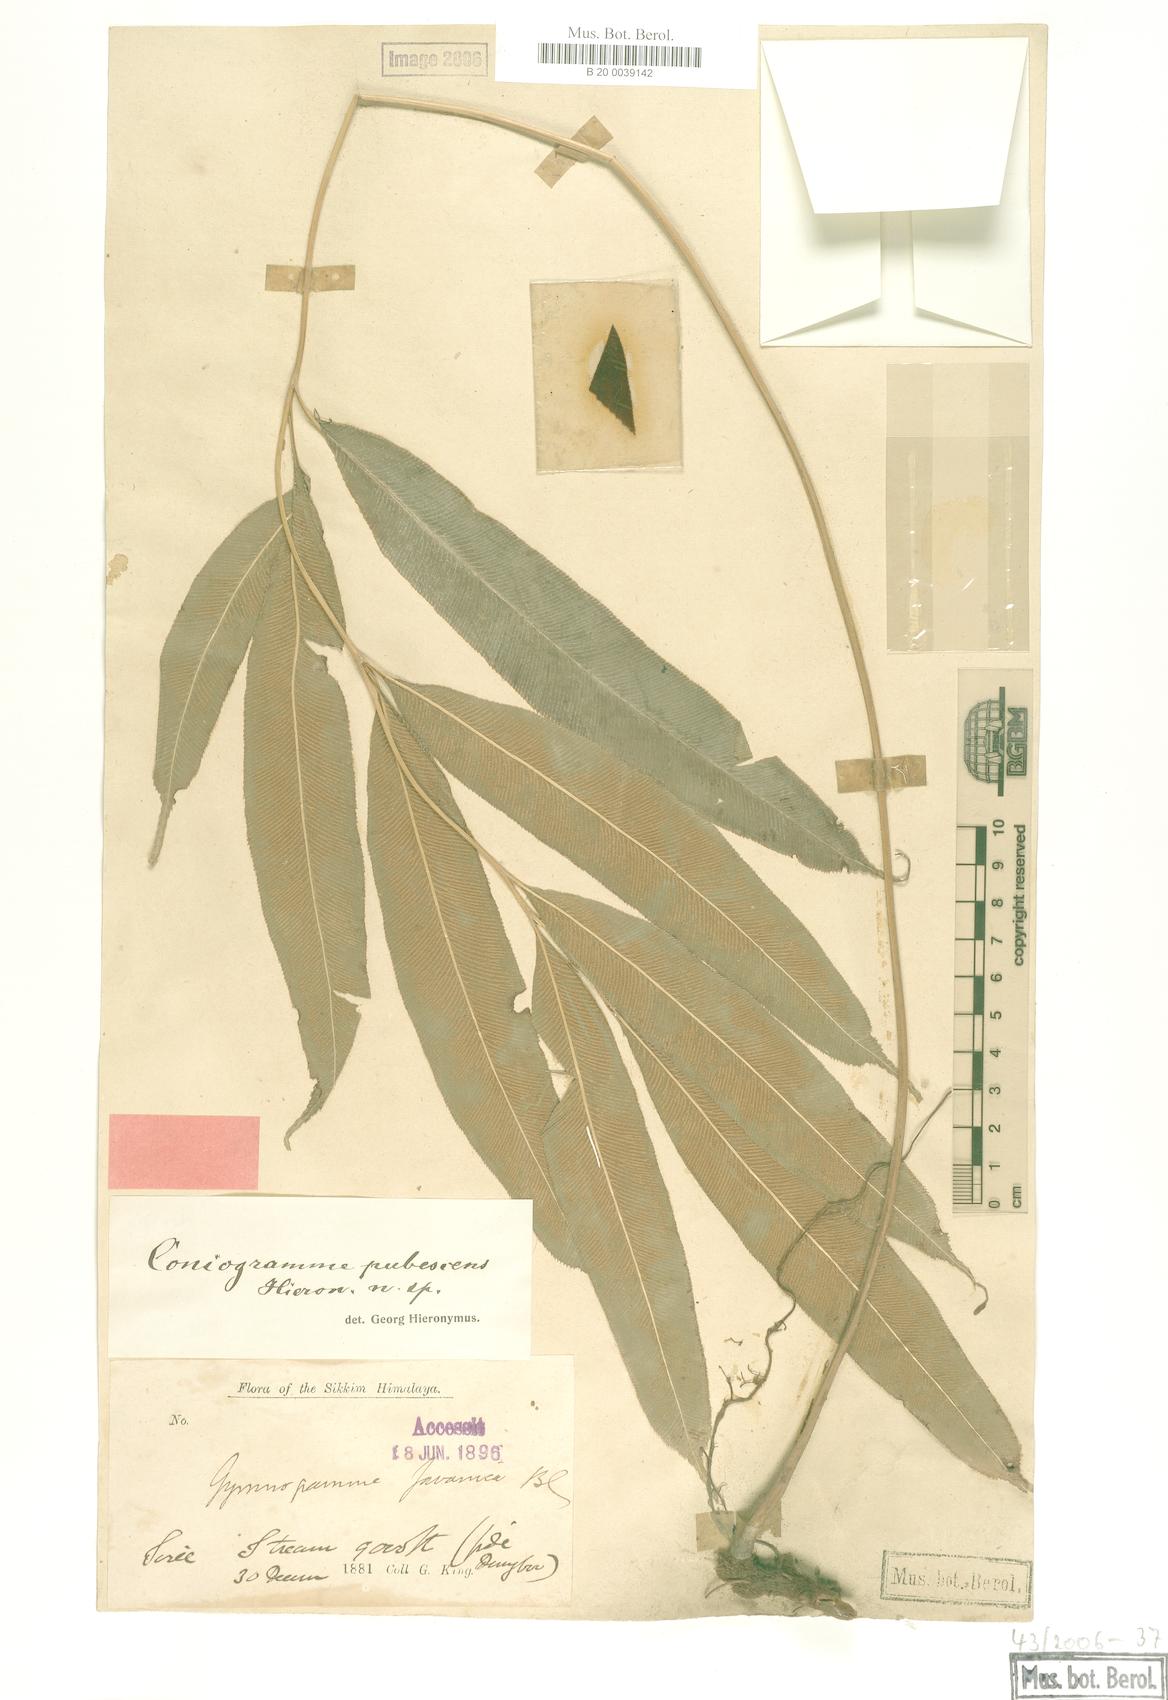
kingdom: Plantae
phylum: Tracheophyta
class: Polypodiopsida
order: Polypodiales
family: Pteridaceae
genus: Coniogramme
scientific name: Coniogramme pubescens
